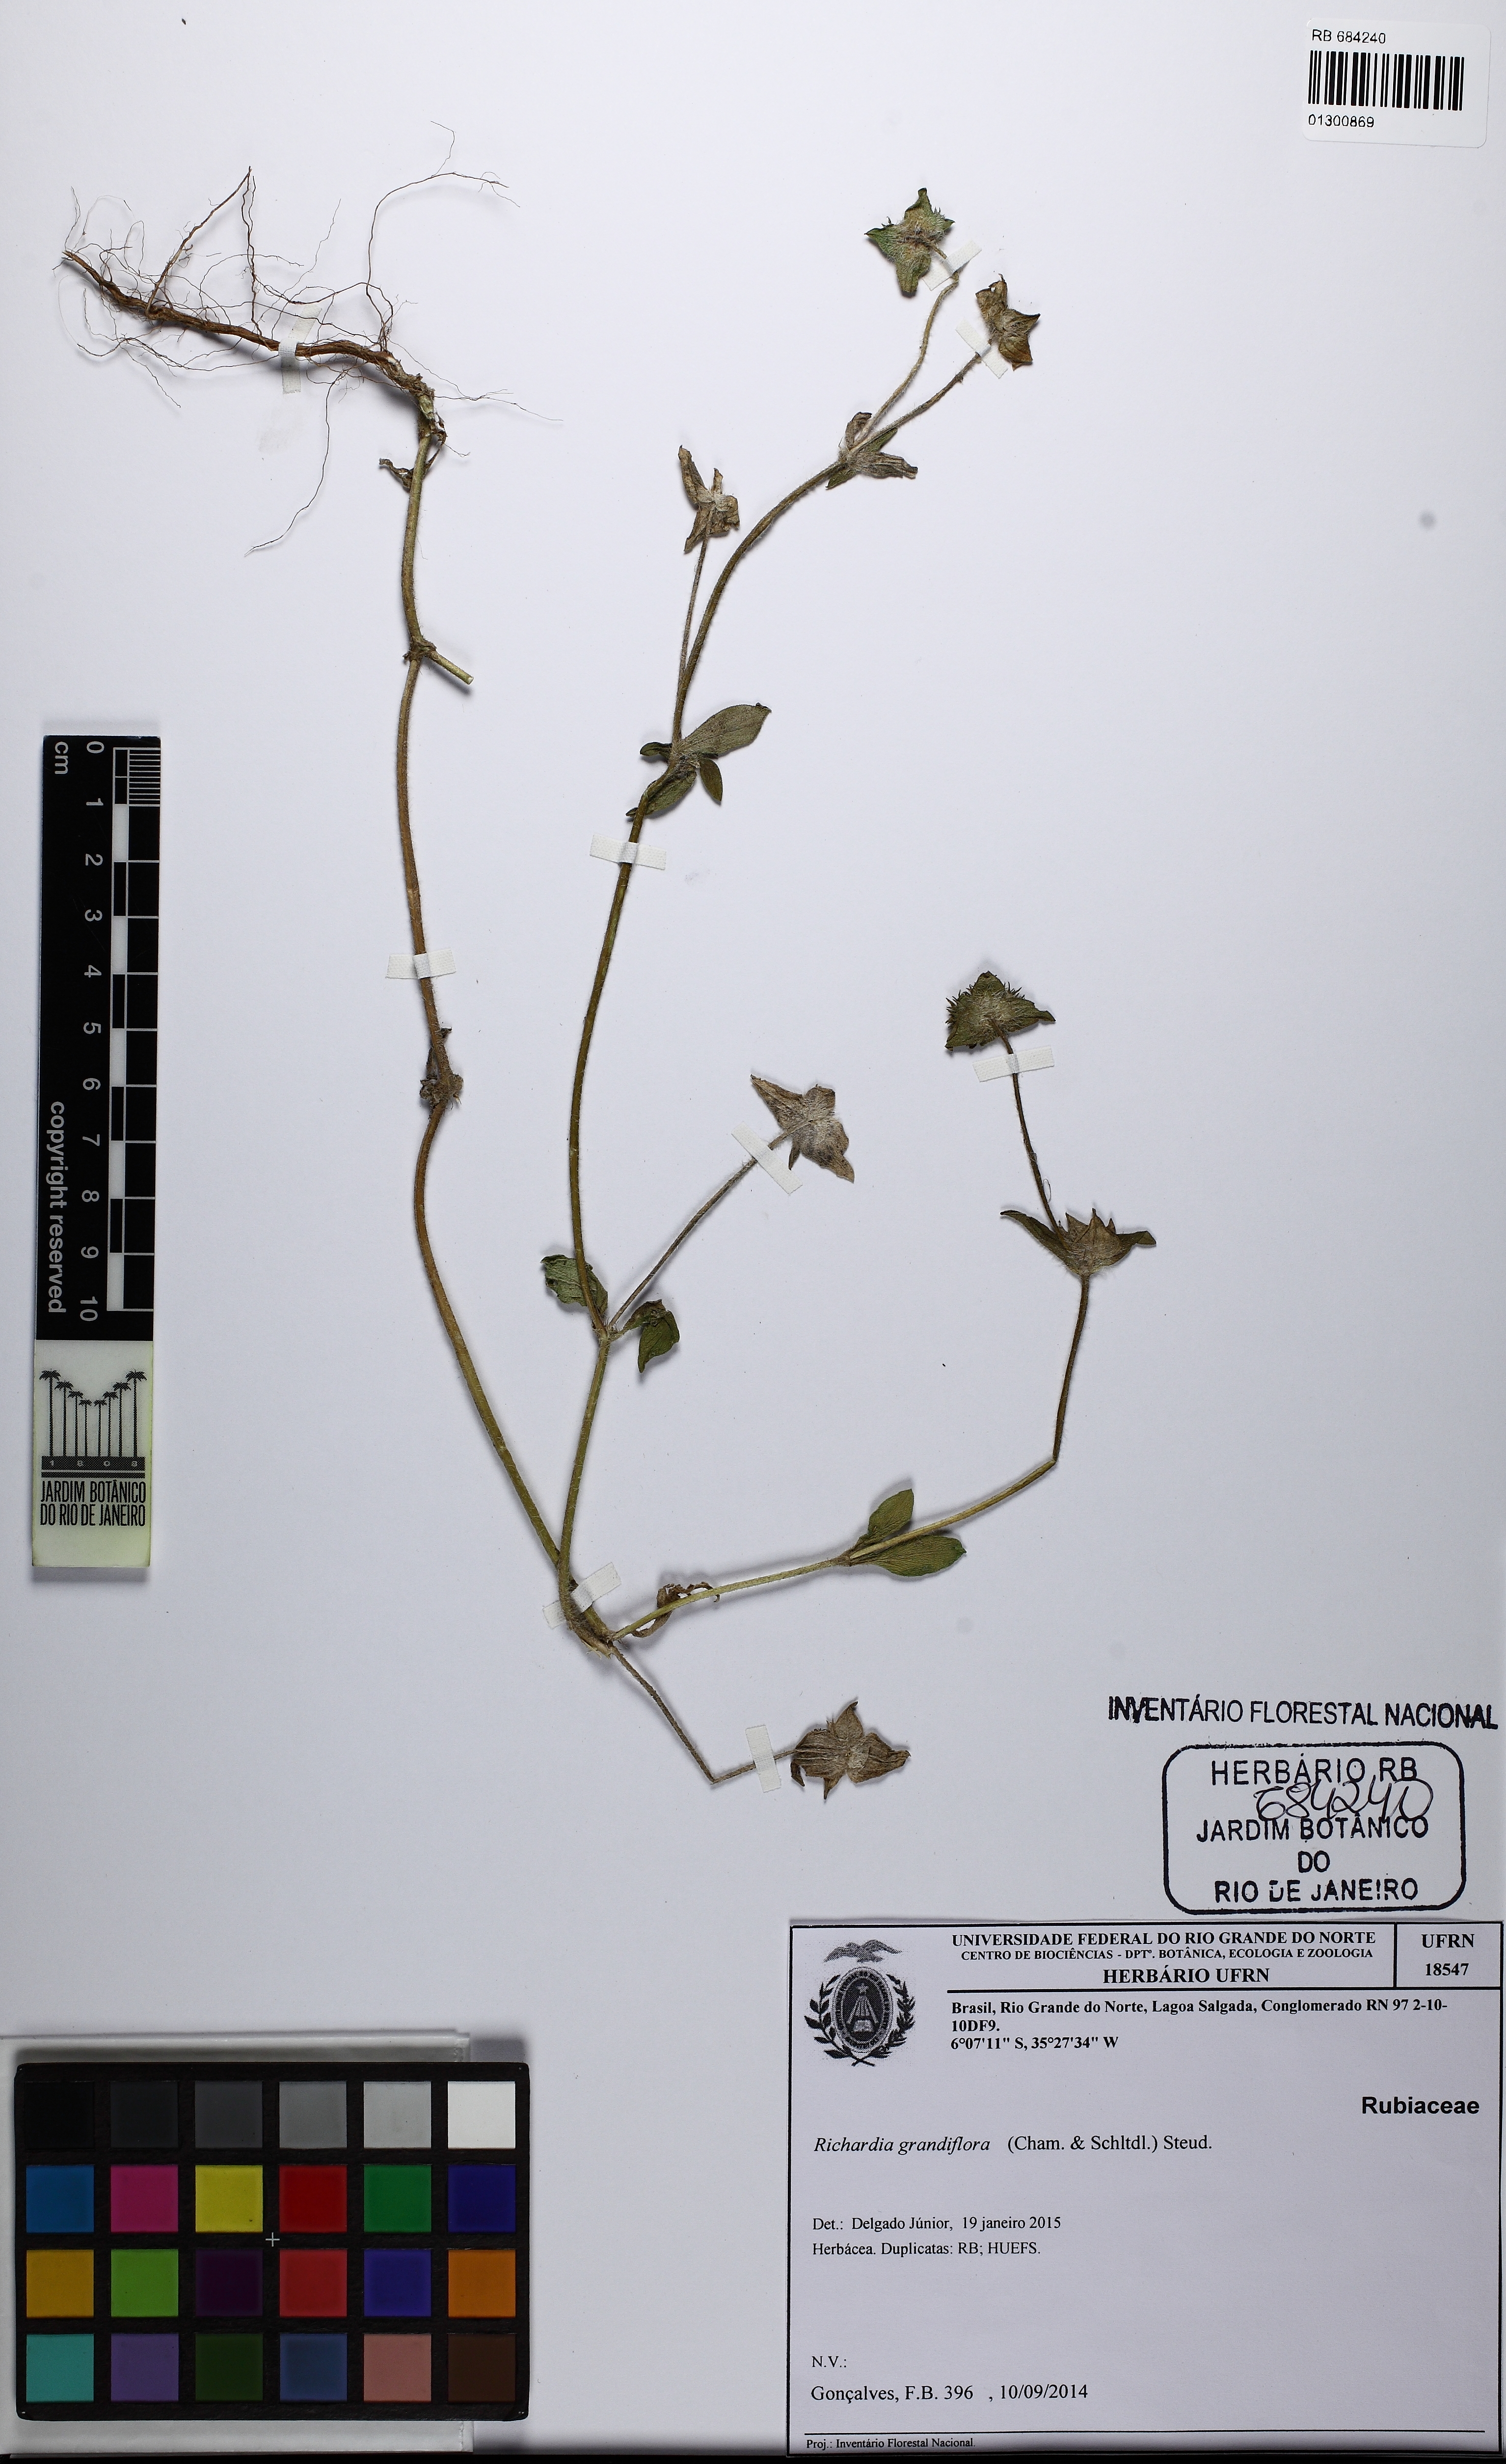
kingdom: Plantae
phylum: Tracheophyta
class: Magnoliopsida
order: Gentianales
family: Rubiaceae
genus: Richardia
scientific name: Richardia grandiflora
